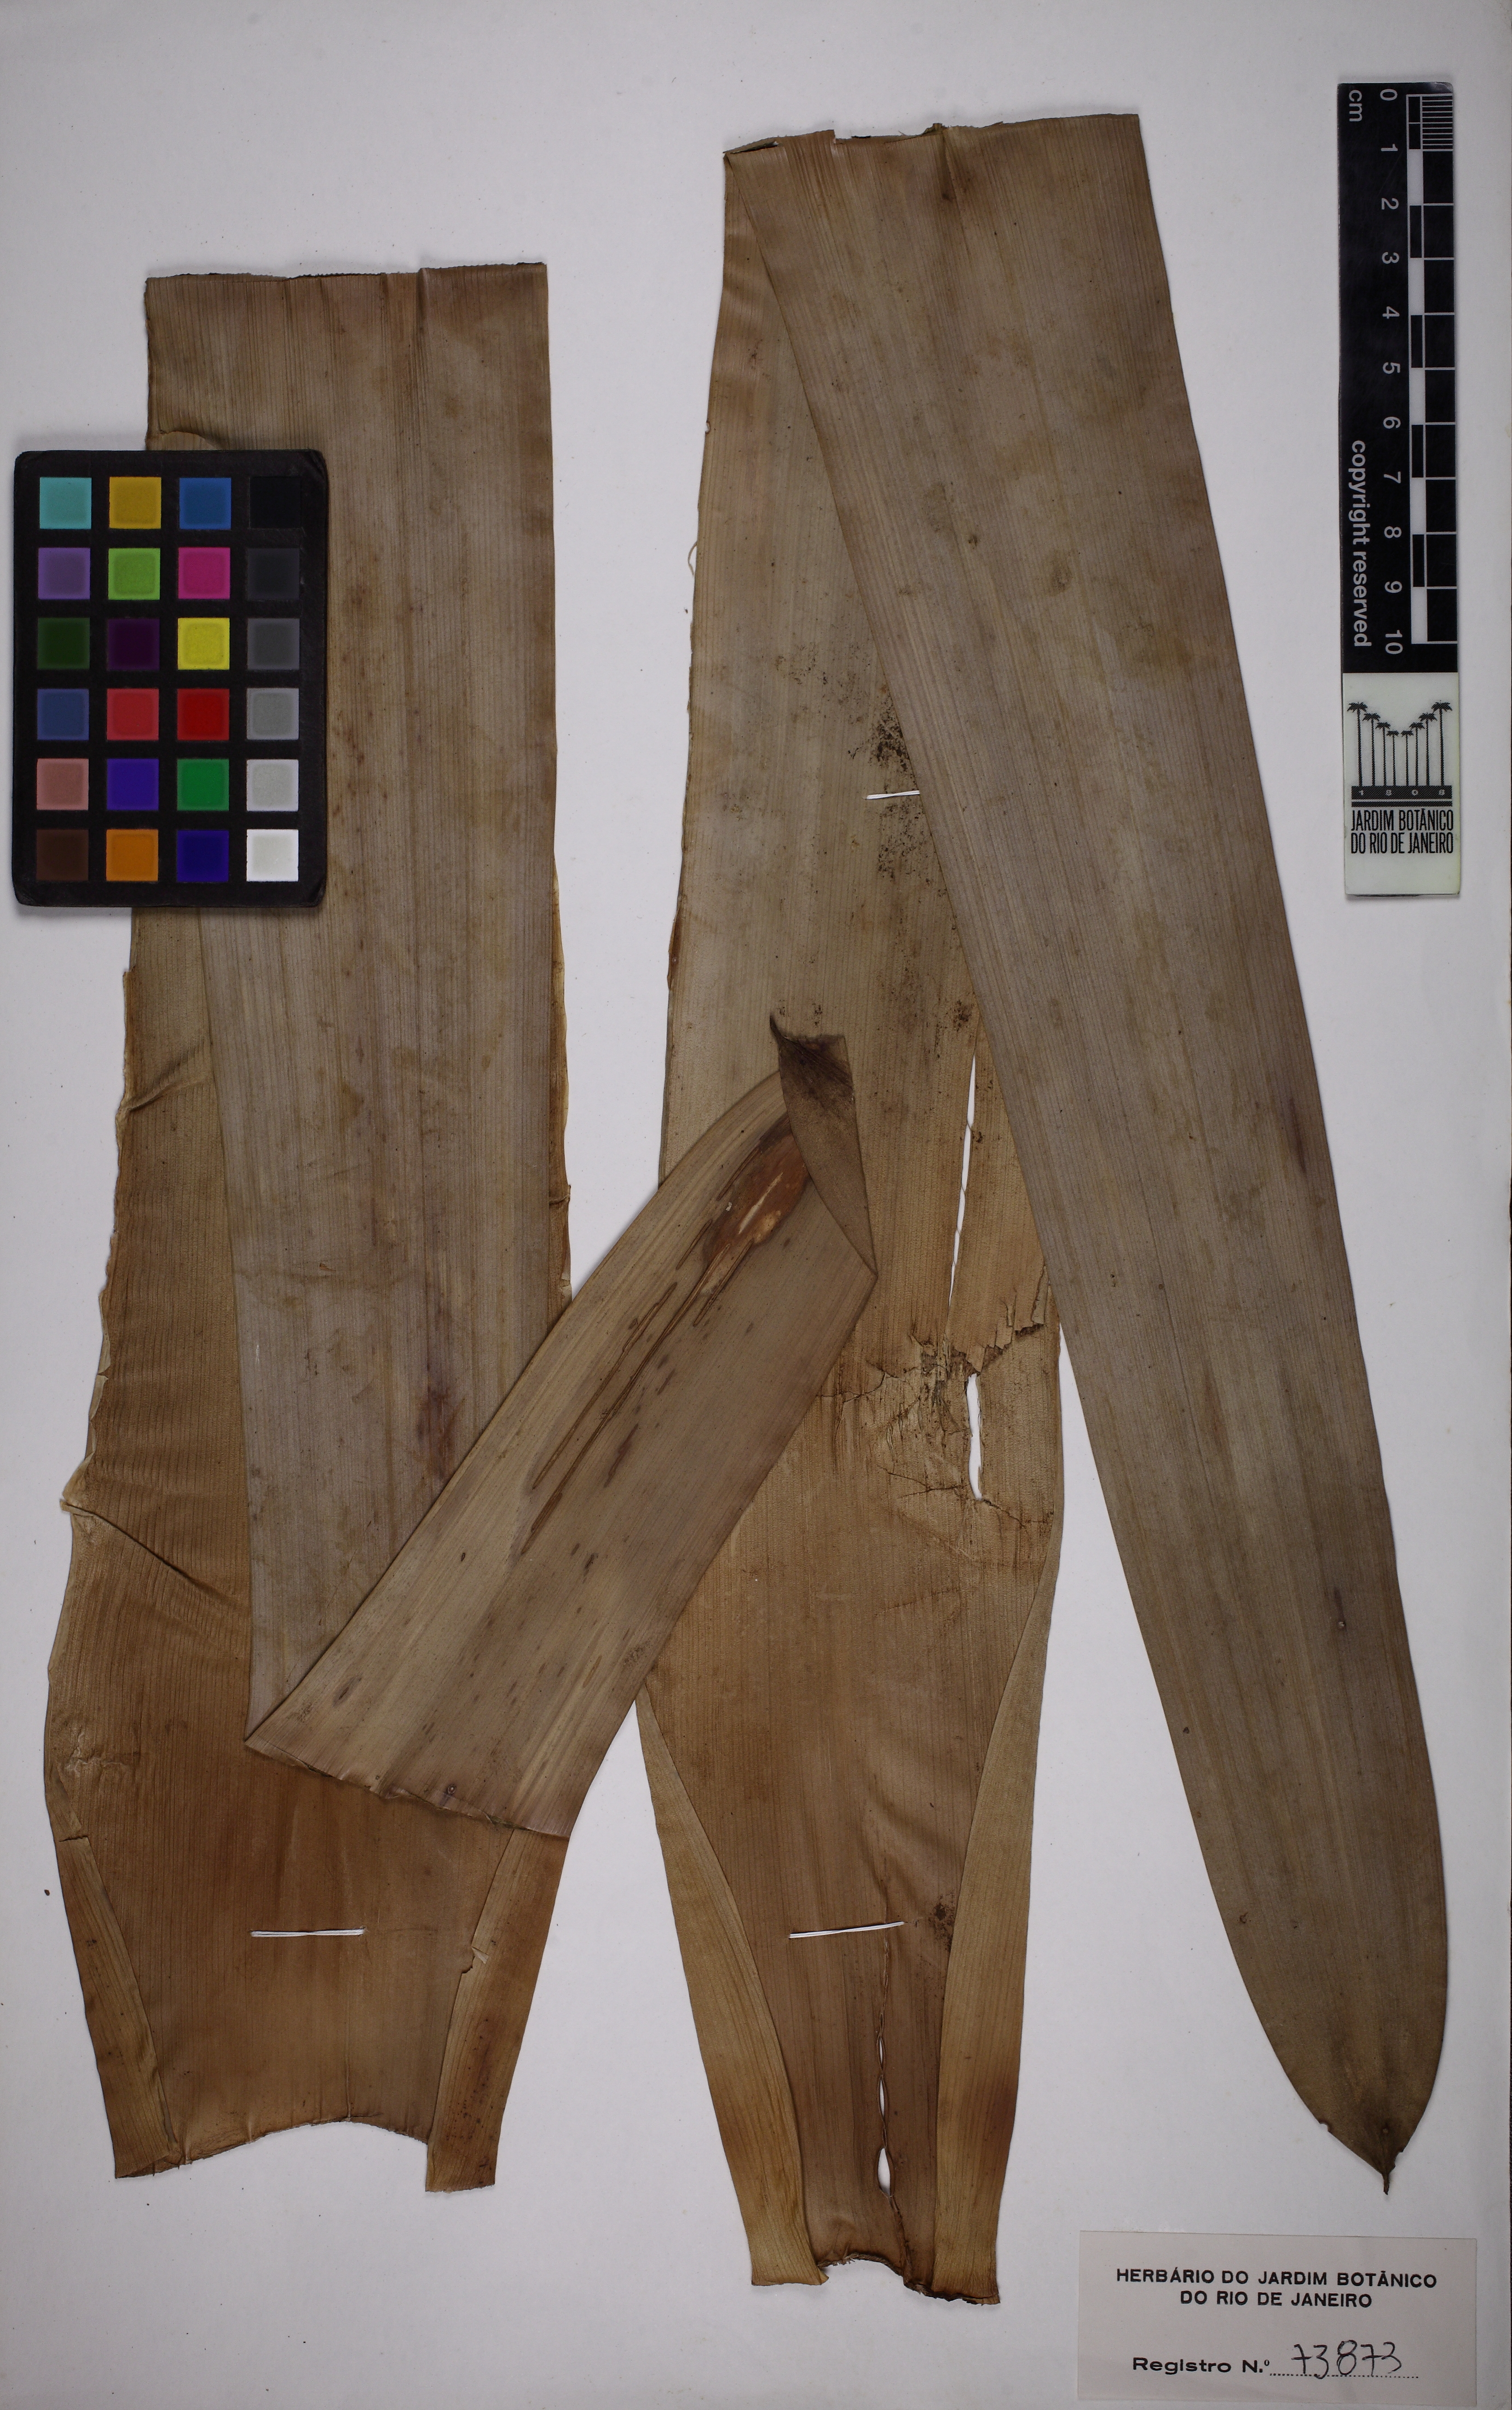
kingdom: Plantae
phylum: Tracheophyta
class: Liliopsida
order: Poales
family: Bromeliaceae
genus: Vriesea
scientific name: Vriesea sazimae
